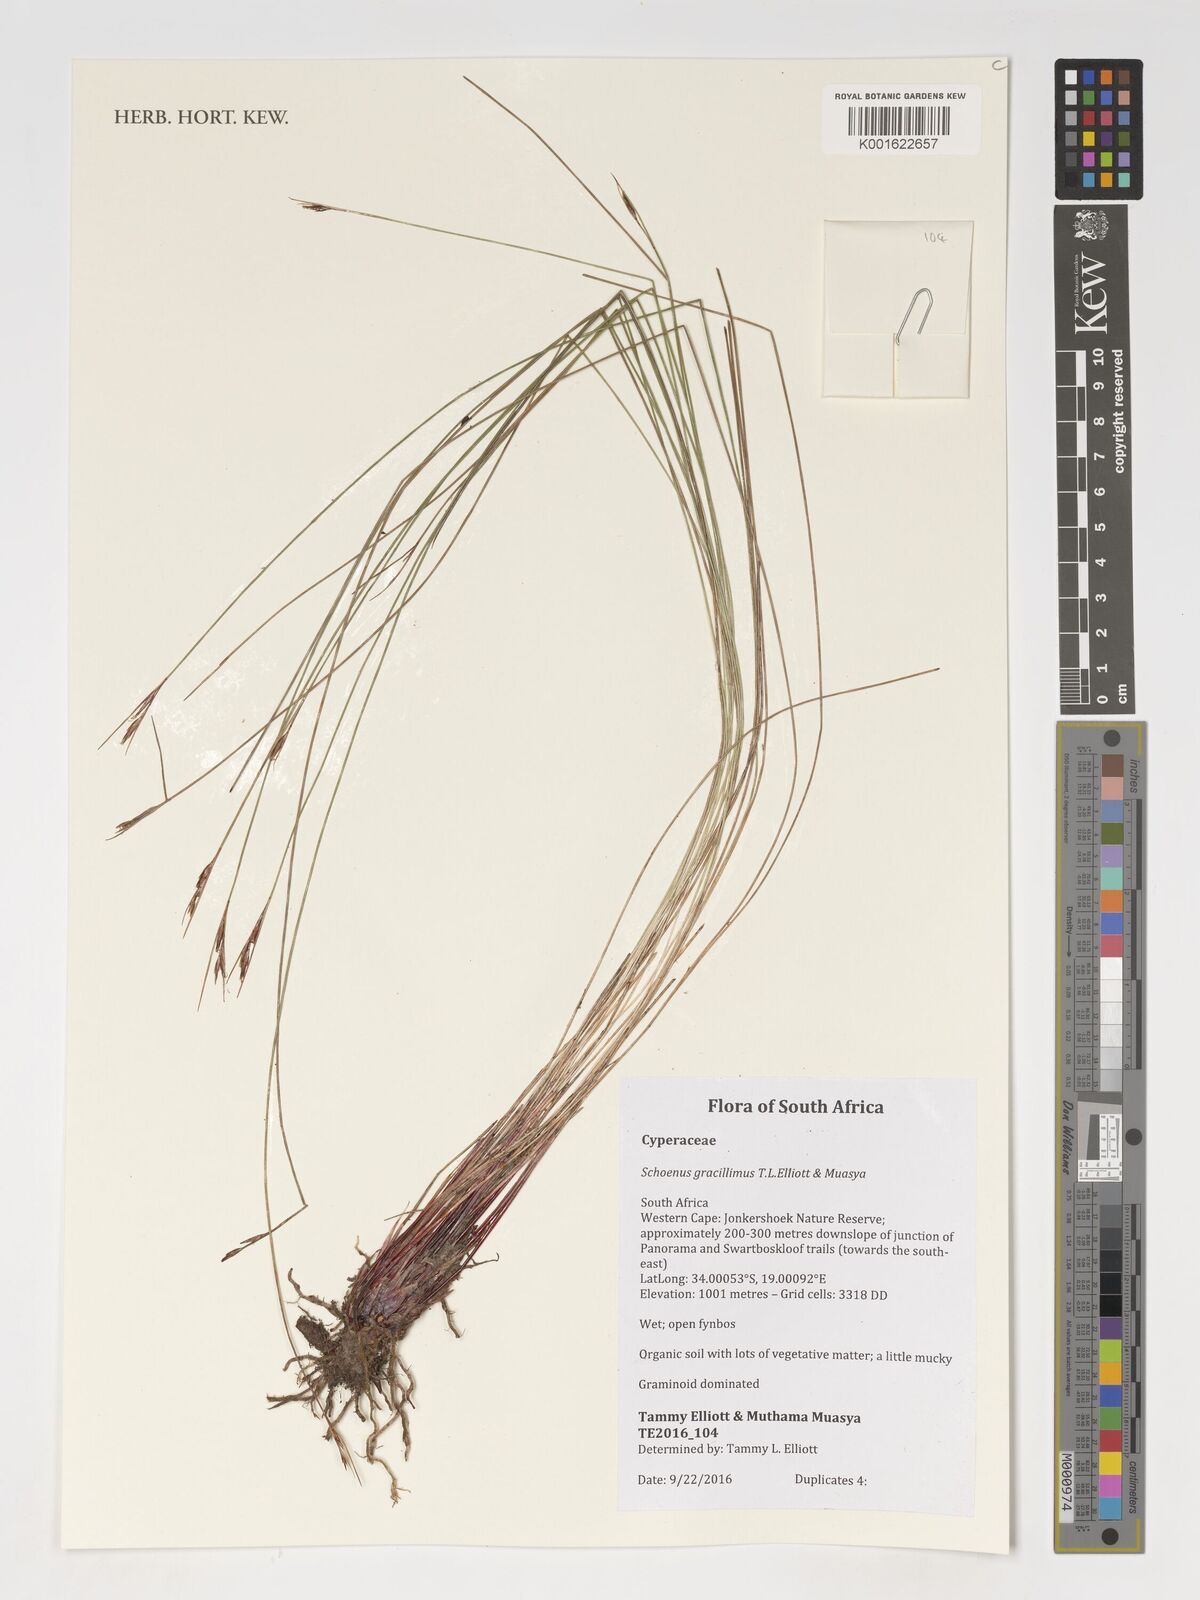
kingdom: Plantae
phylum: Tracheophyta
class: Liliopsida
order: Poales
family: Cyperaceae
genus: Schoenus
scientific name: Schoenus gracillimus
